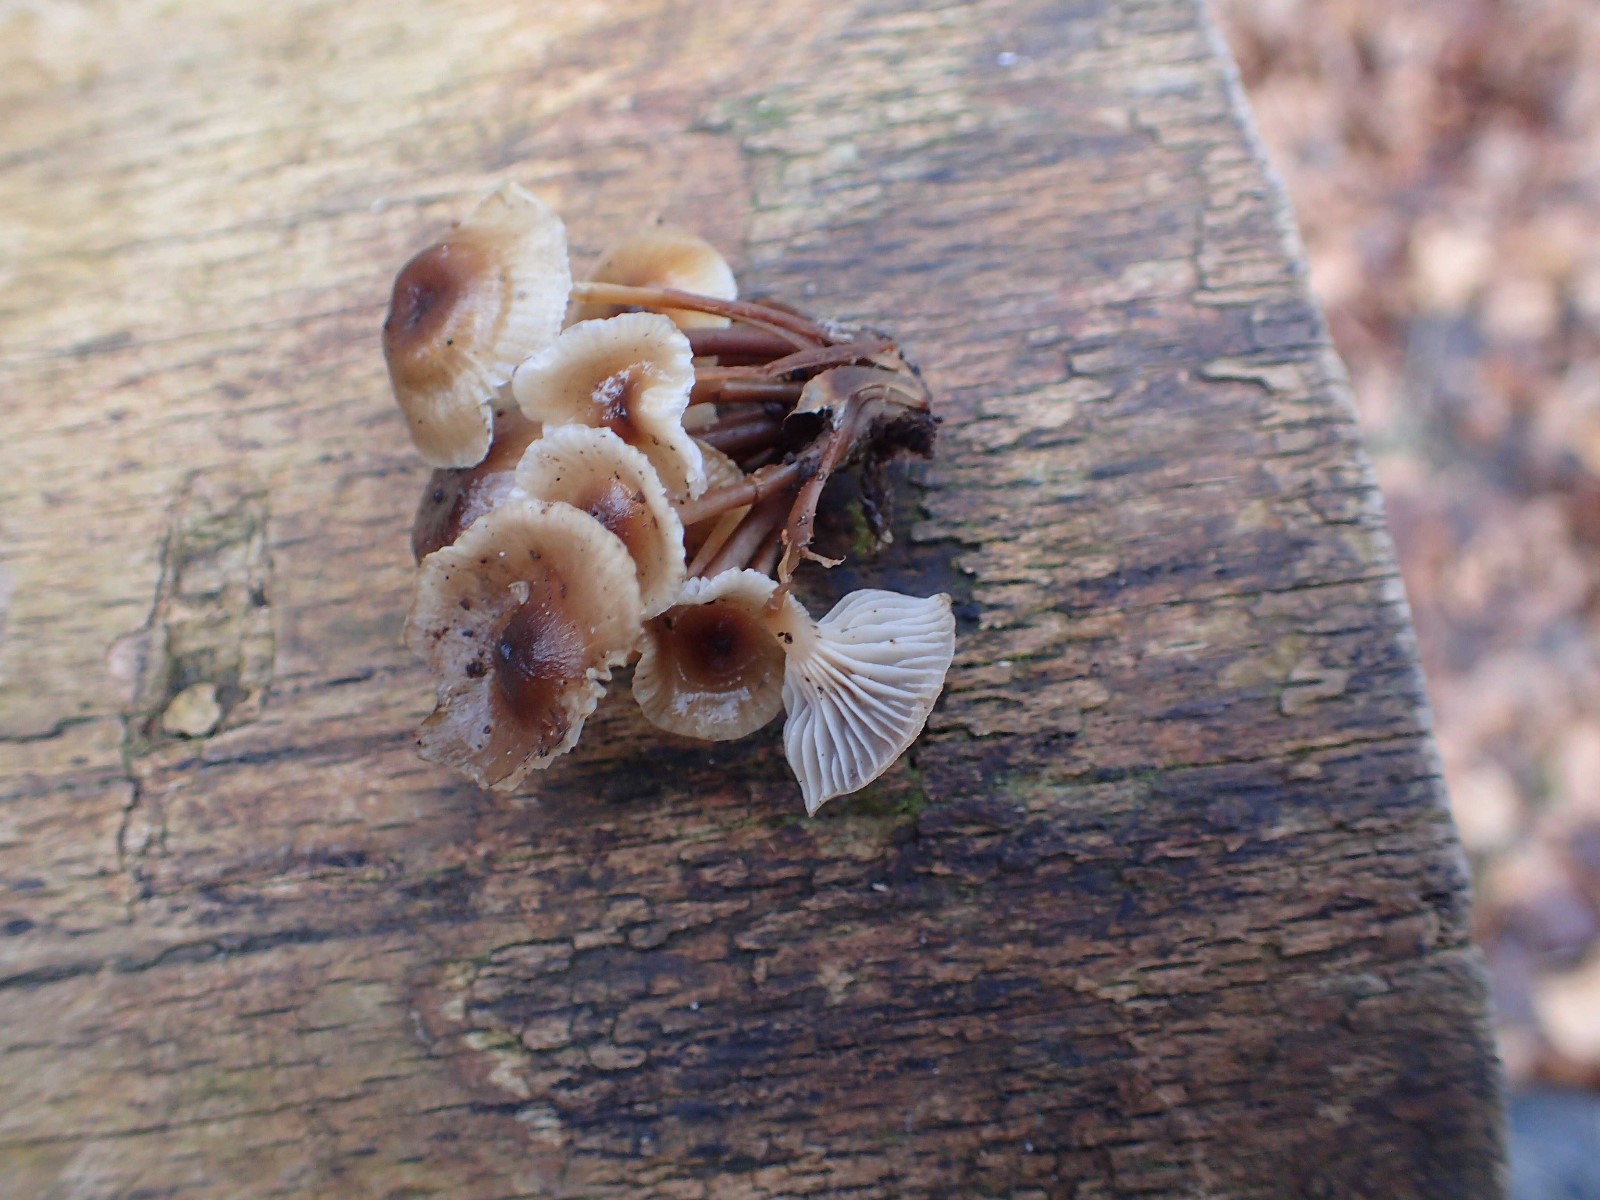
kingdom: Fungi
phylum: Basidiomycota
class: Agaricomycetes
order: Agaricales
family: Mycenaceae
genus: Mycena
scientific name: Mycena tintinnabulum
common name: vinter-huesvamp
